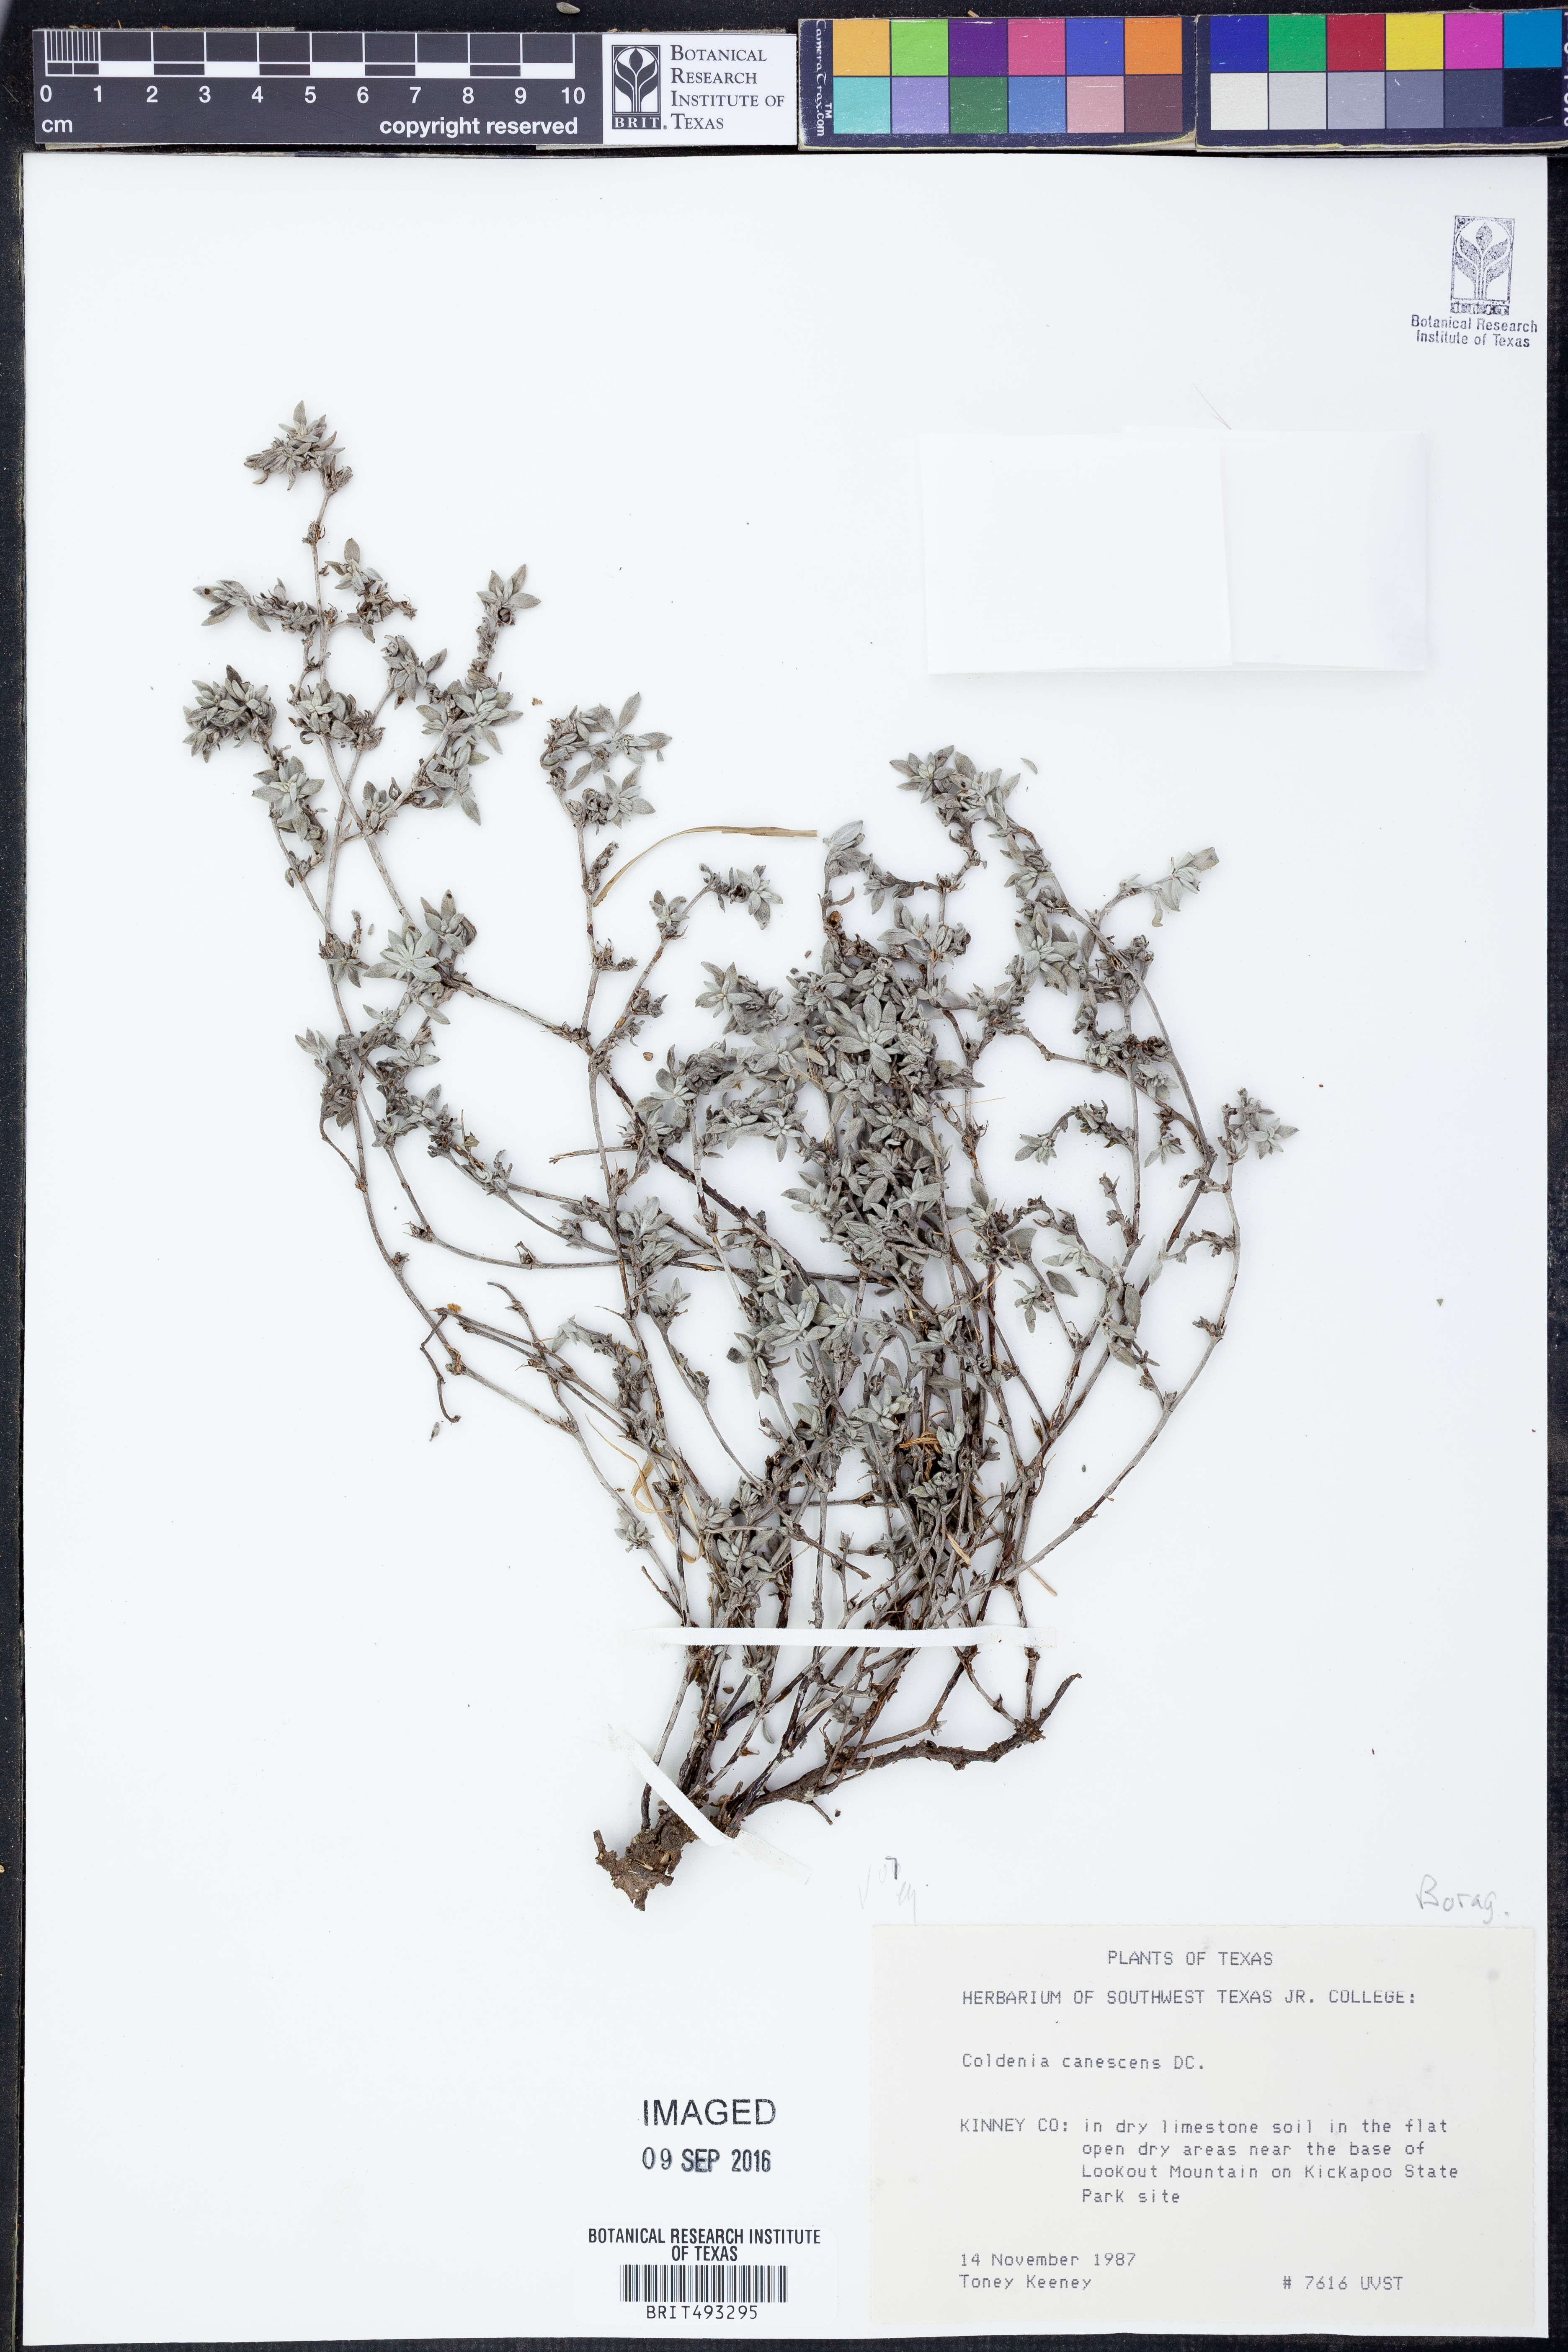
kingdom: Plantae
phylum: Tracheophyta
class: Magnoliopsida
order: Boraginales
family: Ehretiaceae
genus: Tiquilia
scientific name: Tiquilia canescens
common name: Hairy tiquilia
